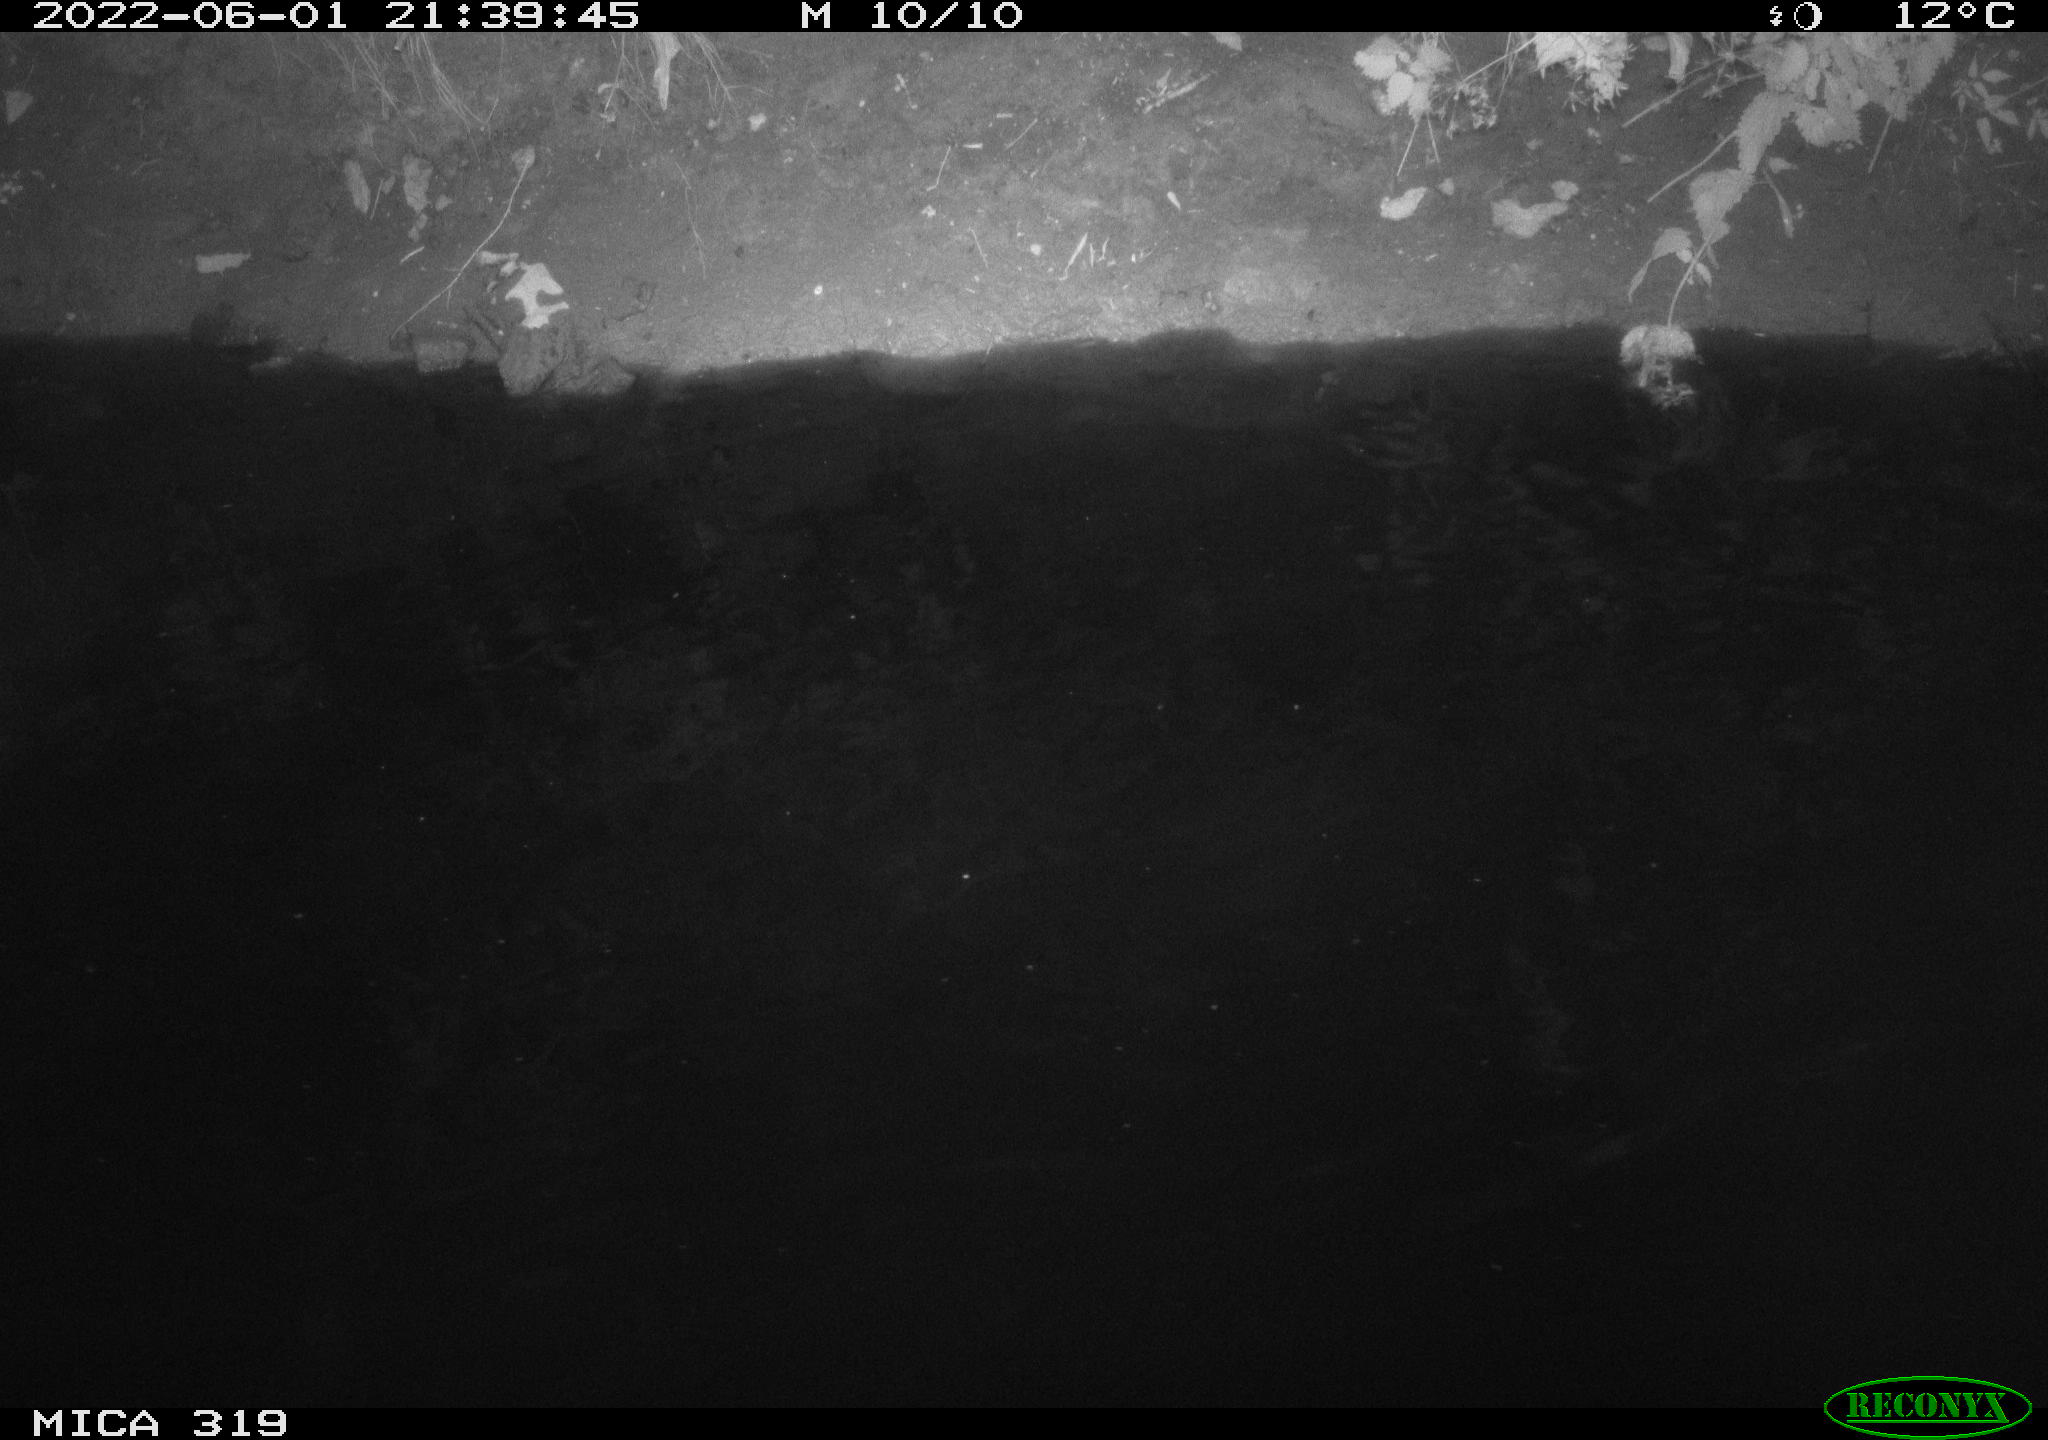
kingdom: Animalia
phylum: Chordata
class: Aves
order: Anseriformes
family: Anatidae
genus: Anas
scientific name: Anas
